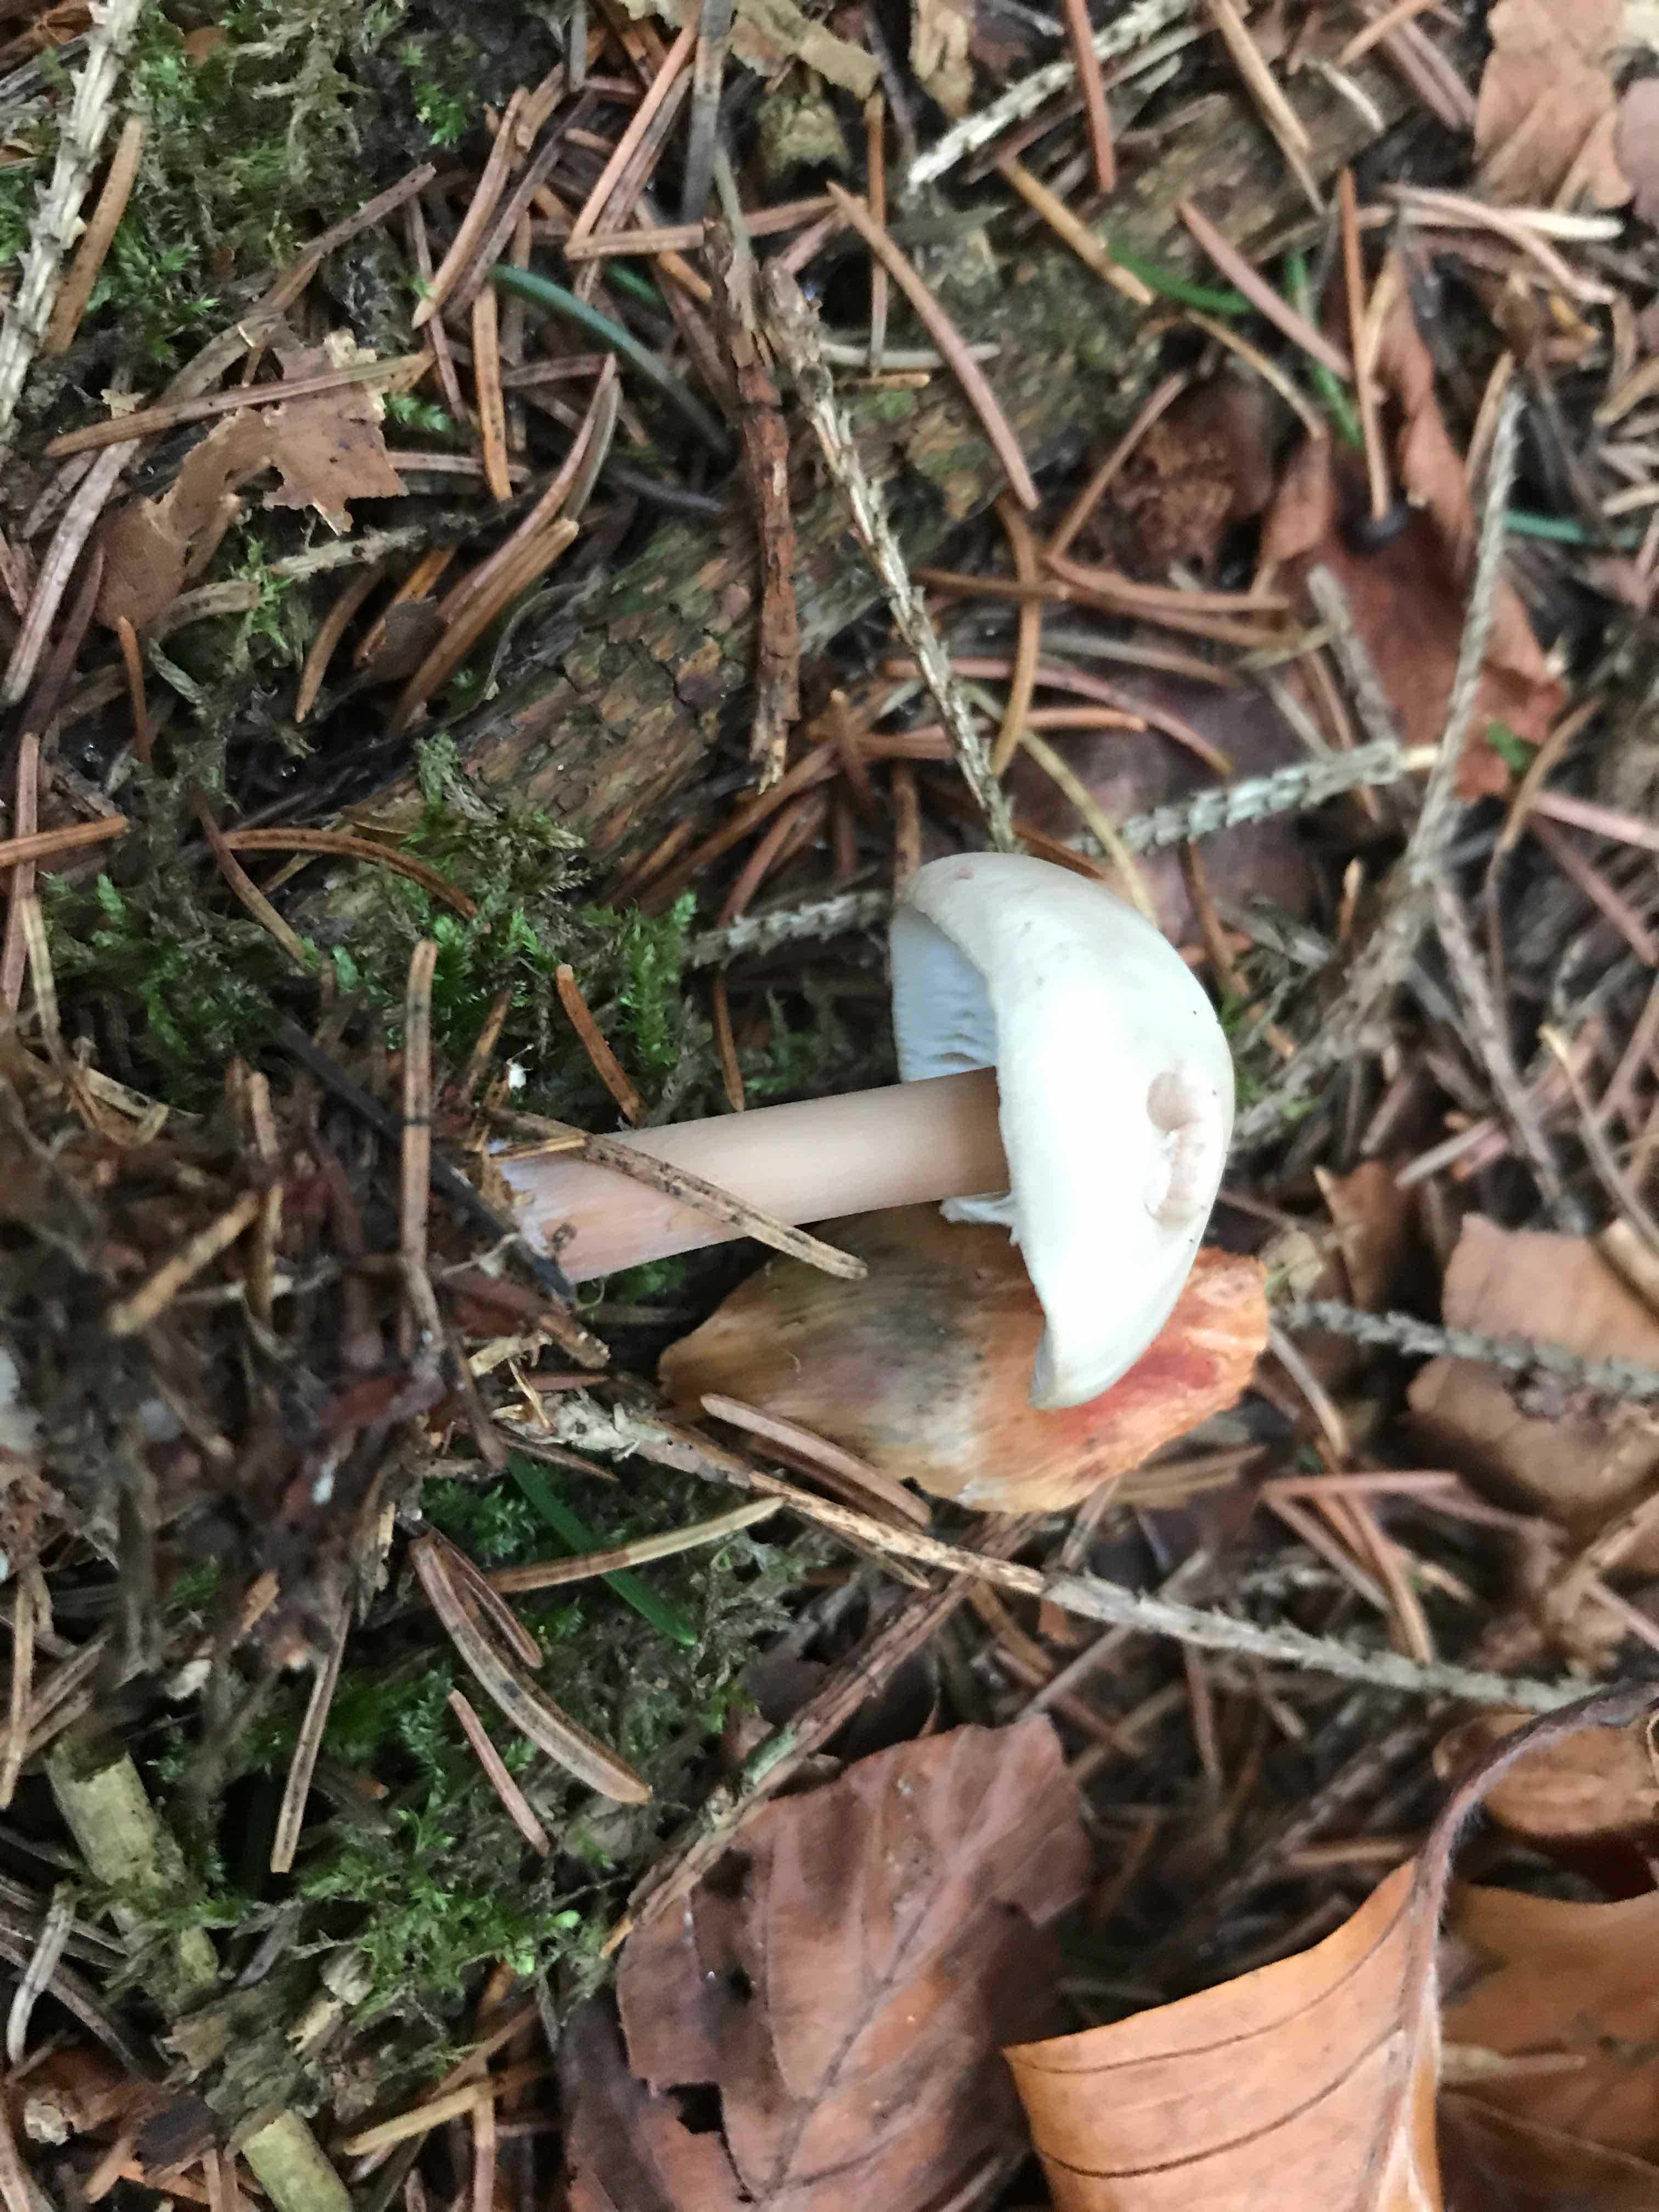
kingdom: Fungi
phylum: Basidiomycota
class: Agaricomycetes
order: Agaricales
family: Omphalotaceae
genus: Rhodocollybia
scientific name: Rhodocollybia asema
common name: horngrå fladhat
